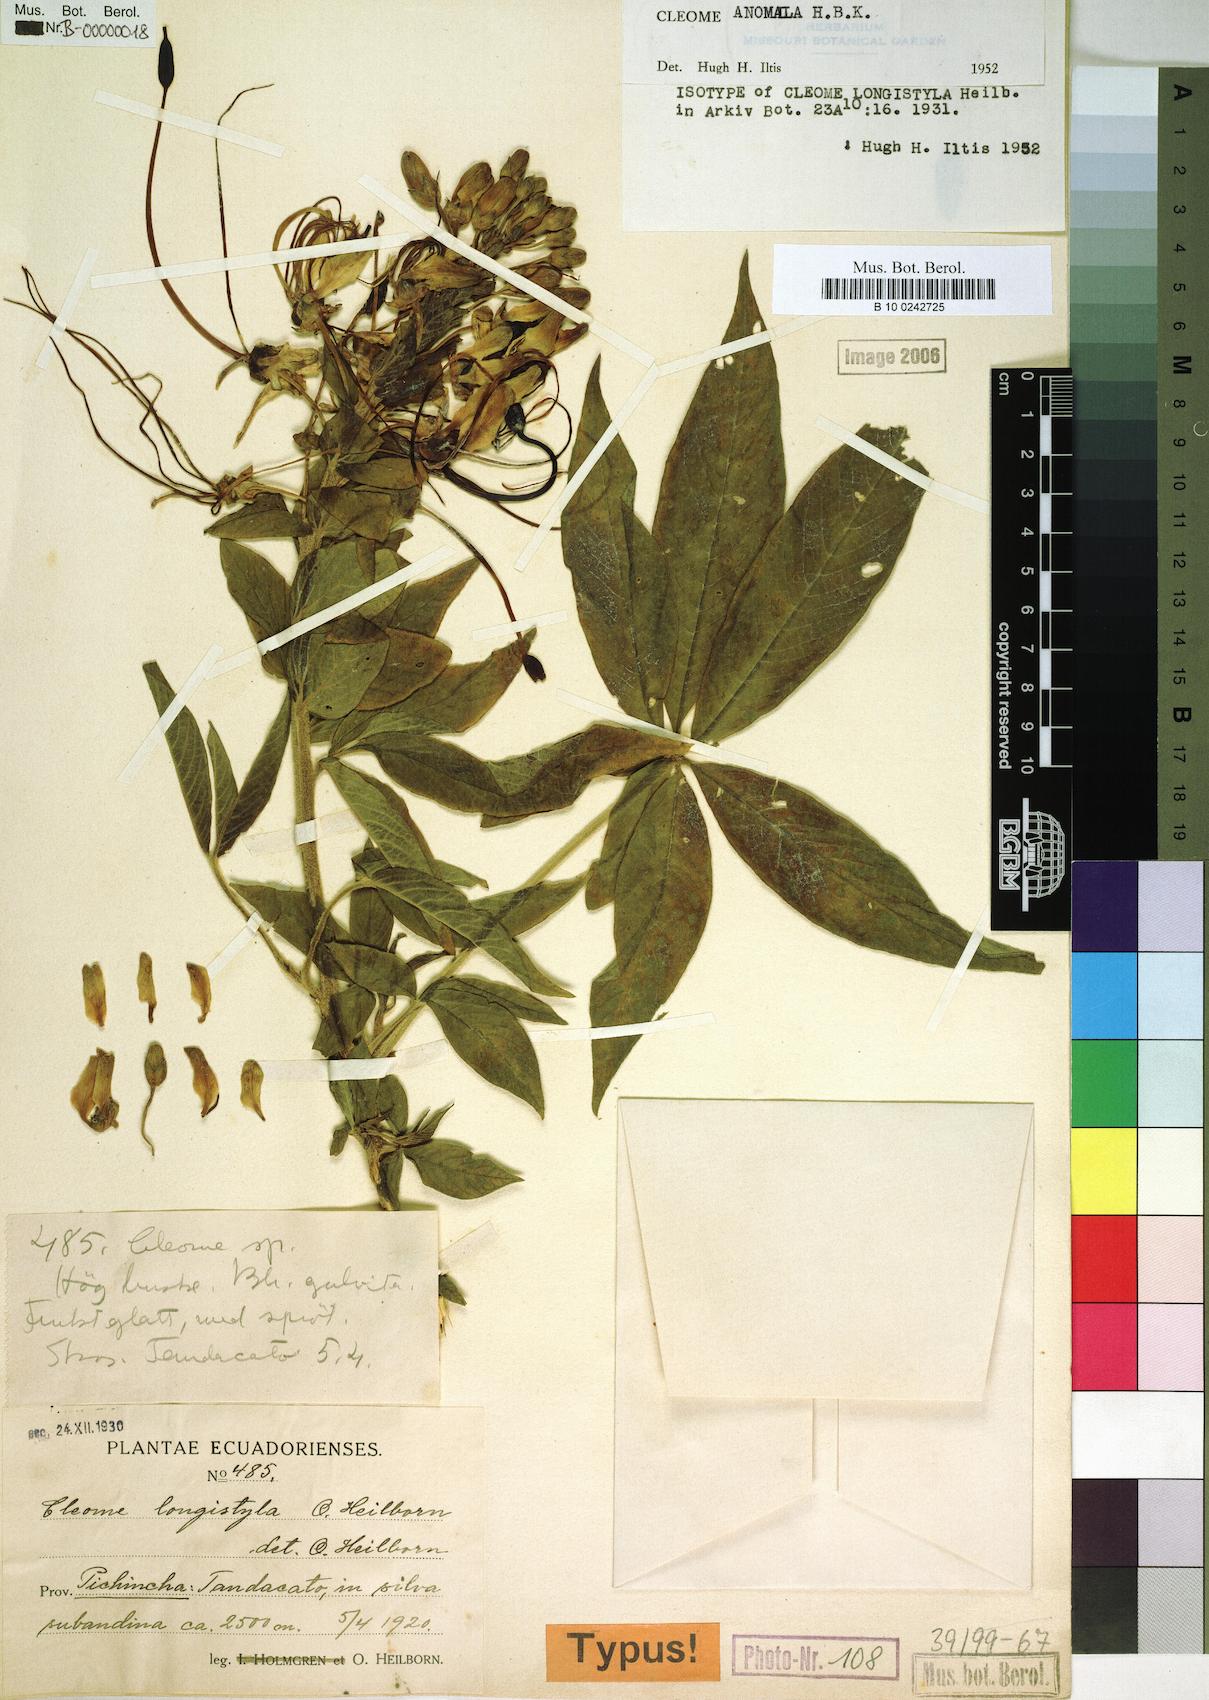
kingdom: Plantae
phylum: Tracheophyta
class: Magnoliopsida
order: Brassicales
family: Cleomaceae
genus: Andinocleome
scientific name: Andinocleome anomala
